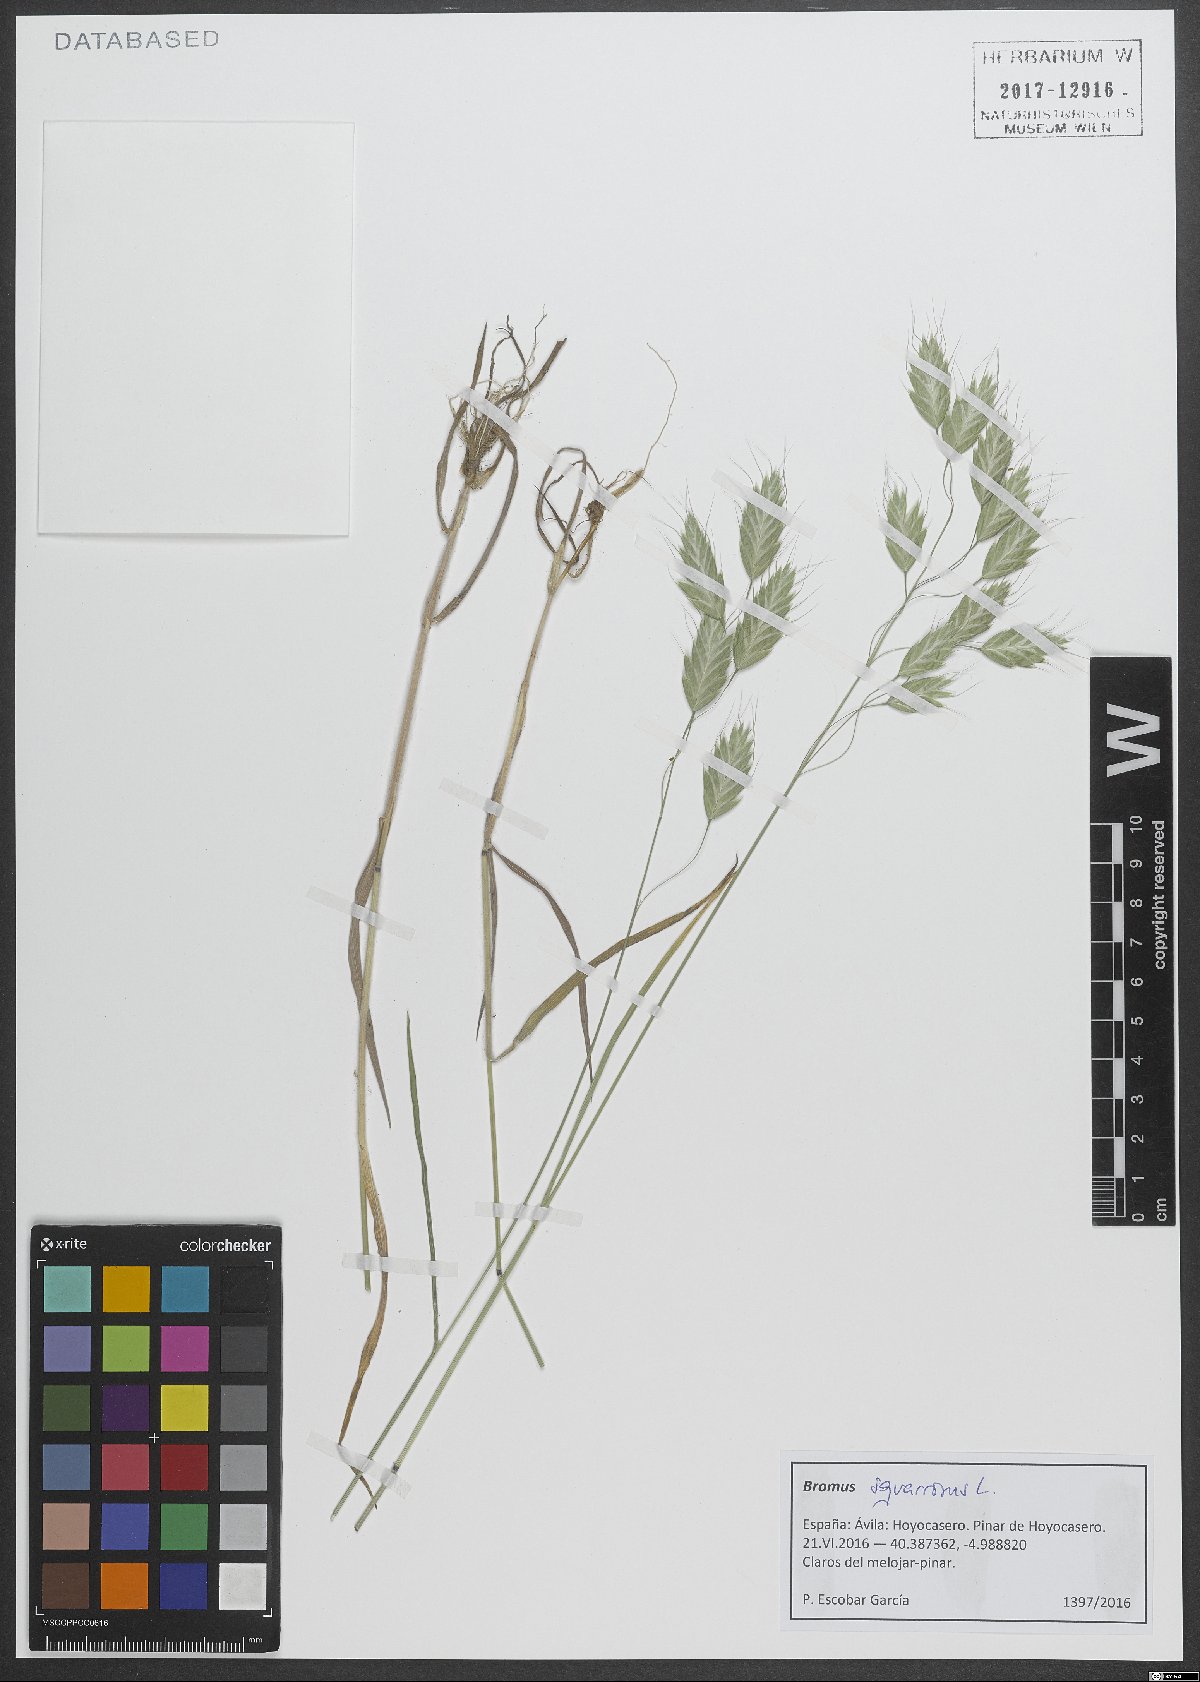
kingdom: Plantae
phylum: Tracheophyta
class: Liliopsida
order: Poales
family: Poaceae
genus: Bromus
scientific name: Bromus squarrosus
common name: Corn brome
